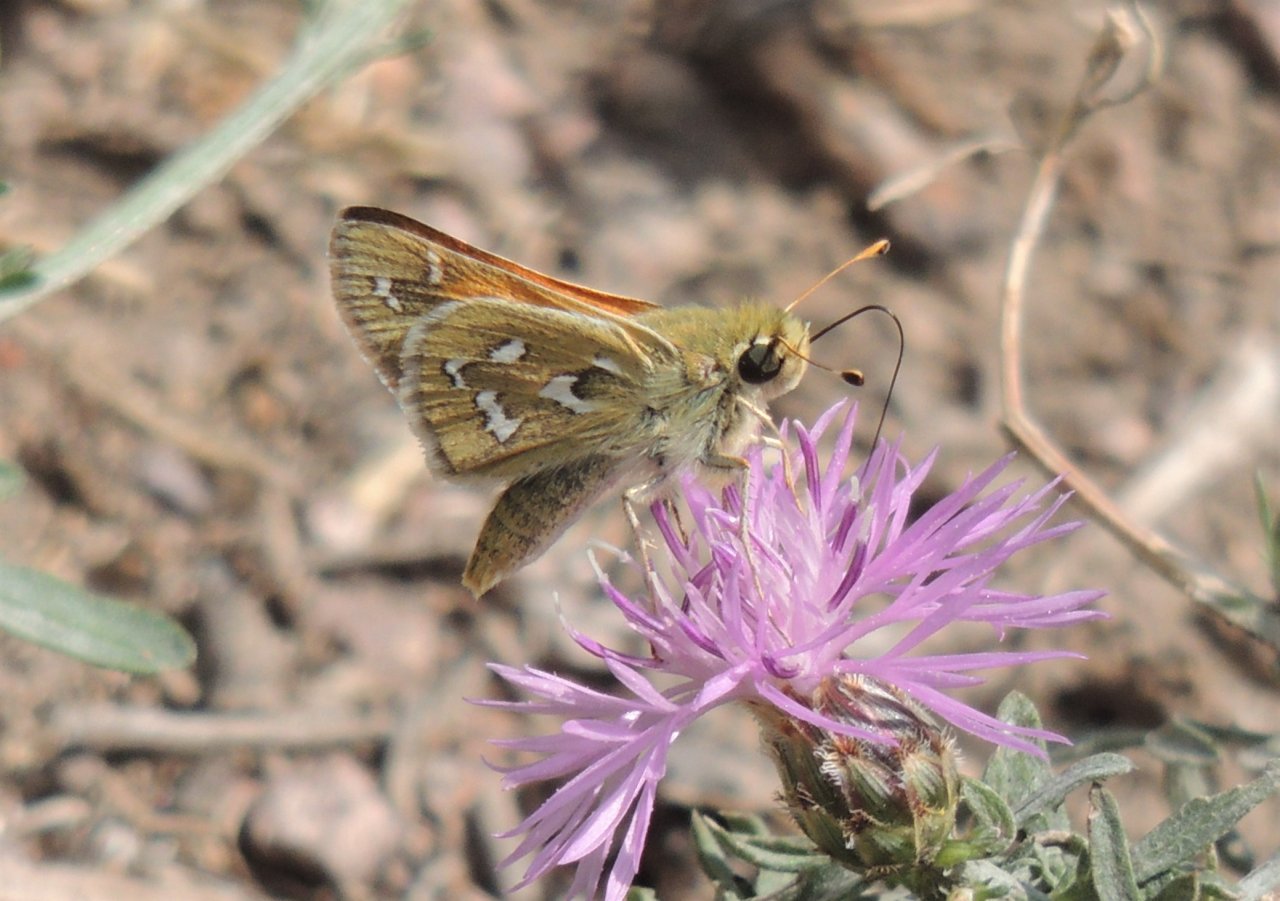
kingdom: Animalia
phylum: Arthropoda
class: Insecta
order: Lepidoptera
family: Hesperiidae
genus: Hesperia
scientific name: Hesperia comma
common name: Western Branded Skipper
